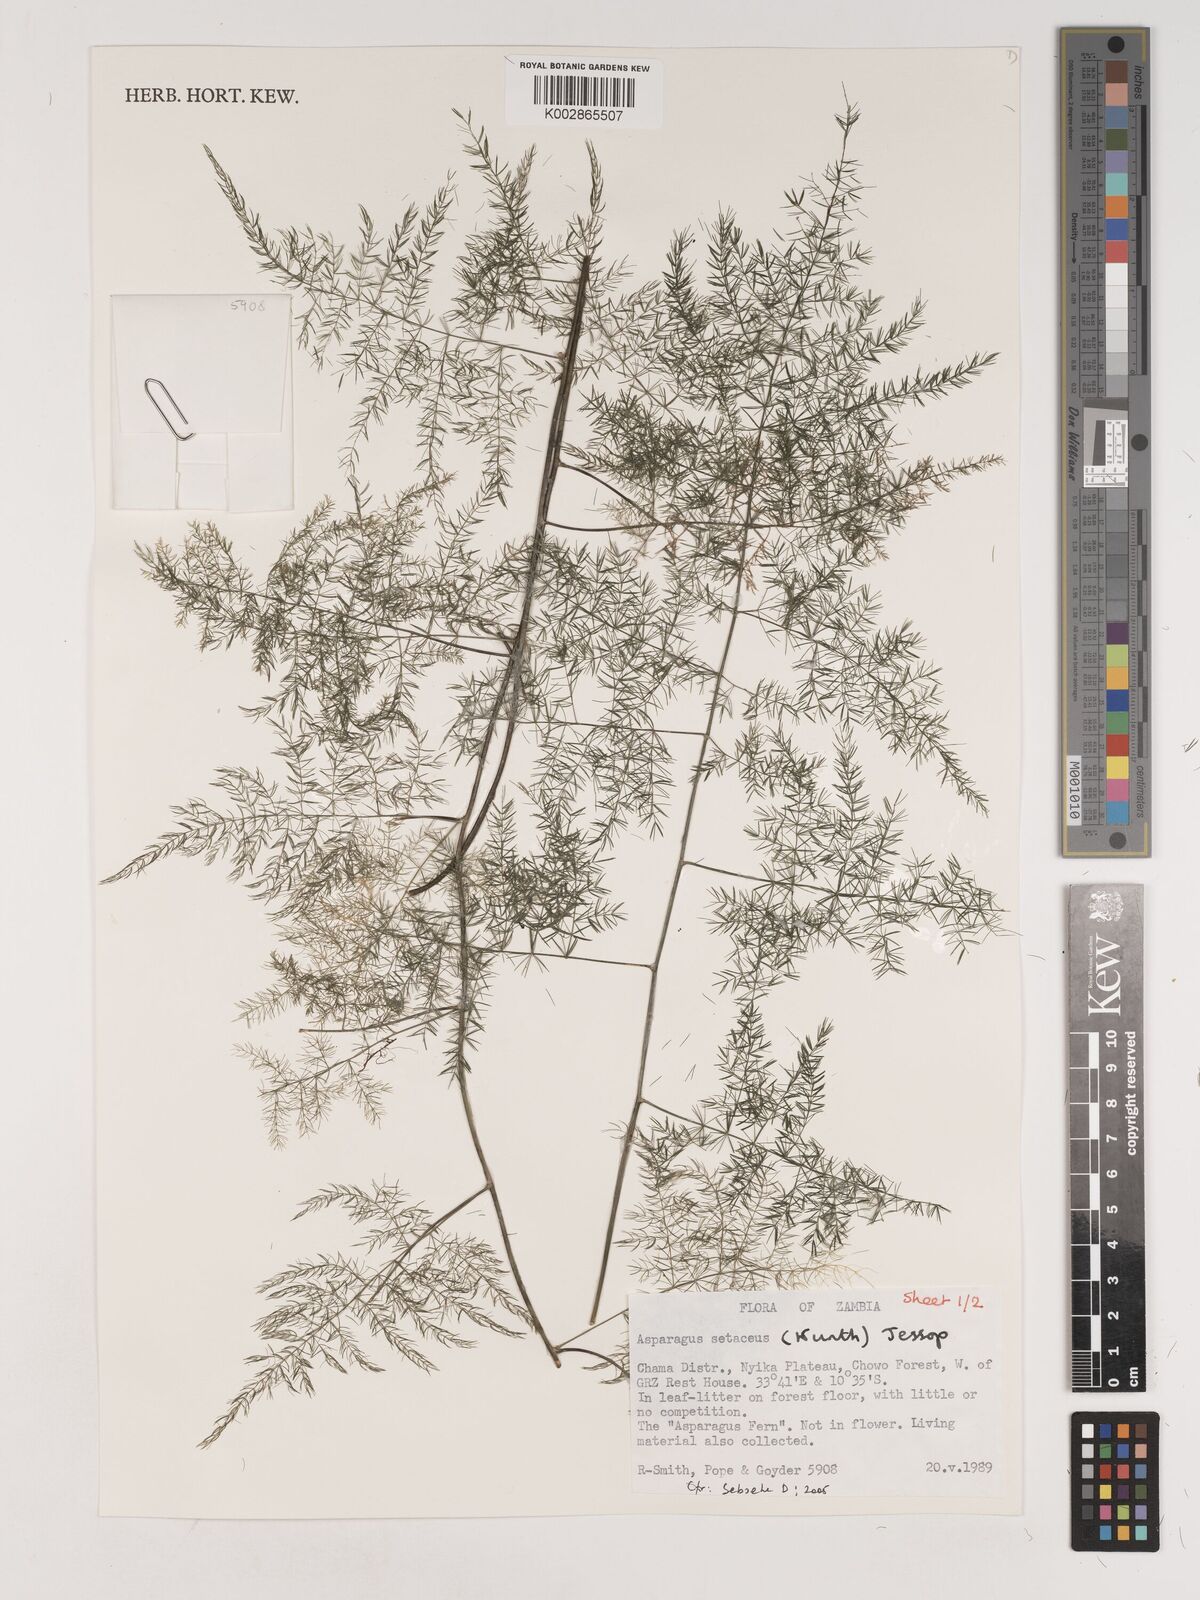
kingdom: Plantae
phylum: Tracheophyta
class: Liliopsida
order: Asparagales
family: Asparagaceae
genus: Asparagus
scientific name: Asparagus setaceus
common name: Common asparagus fern
